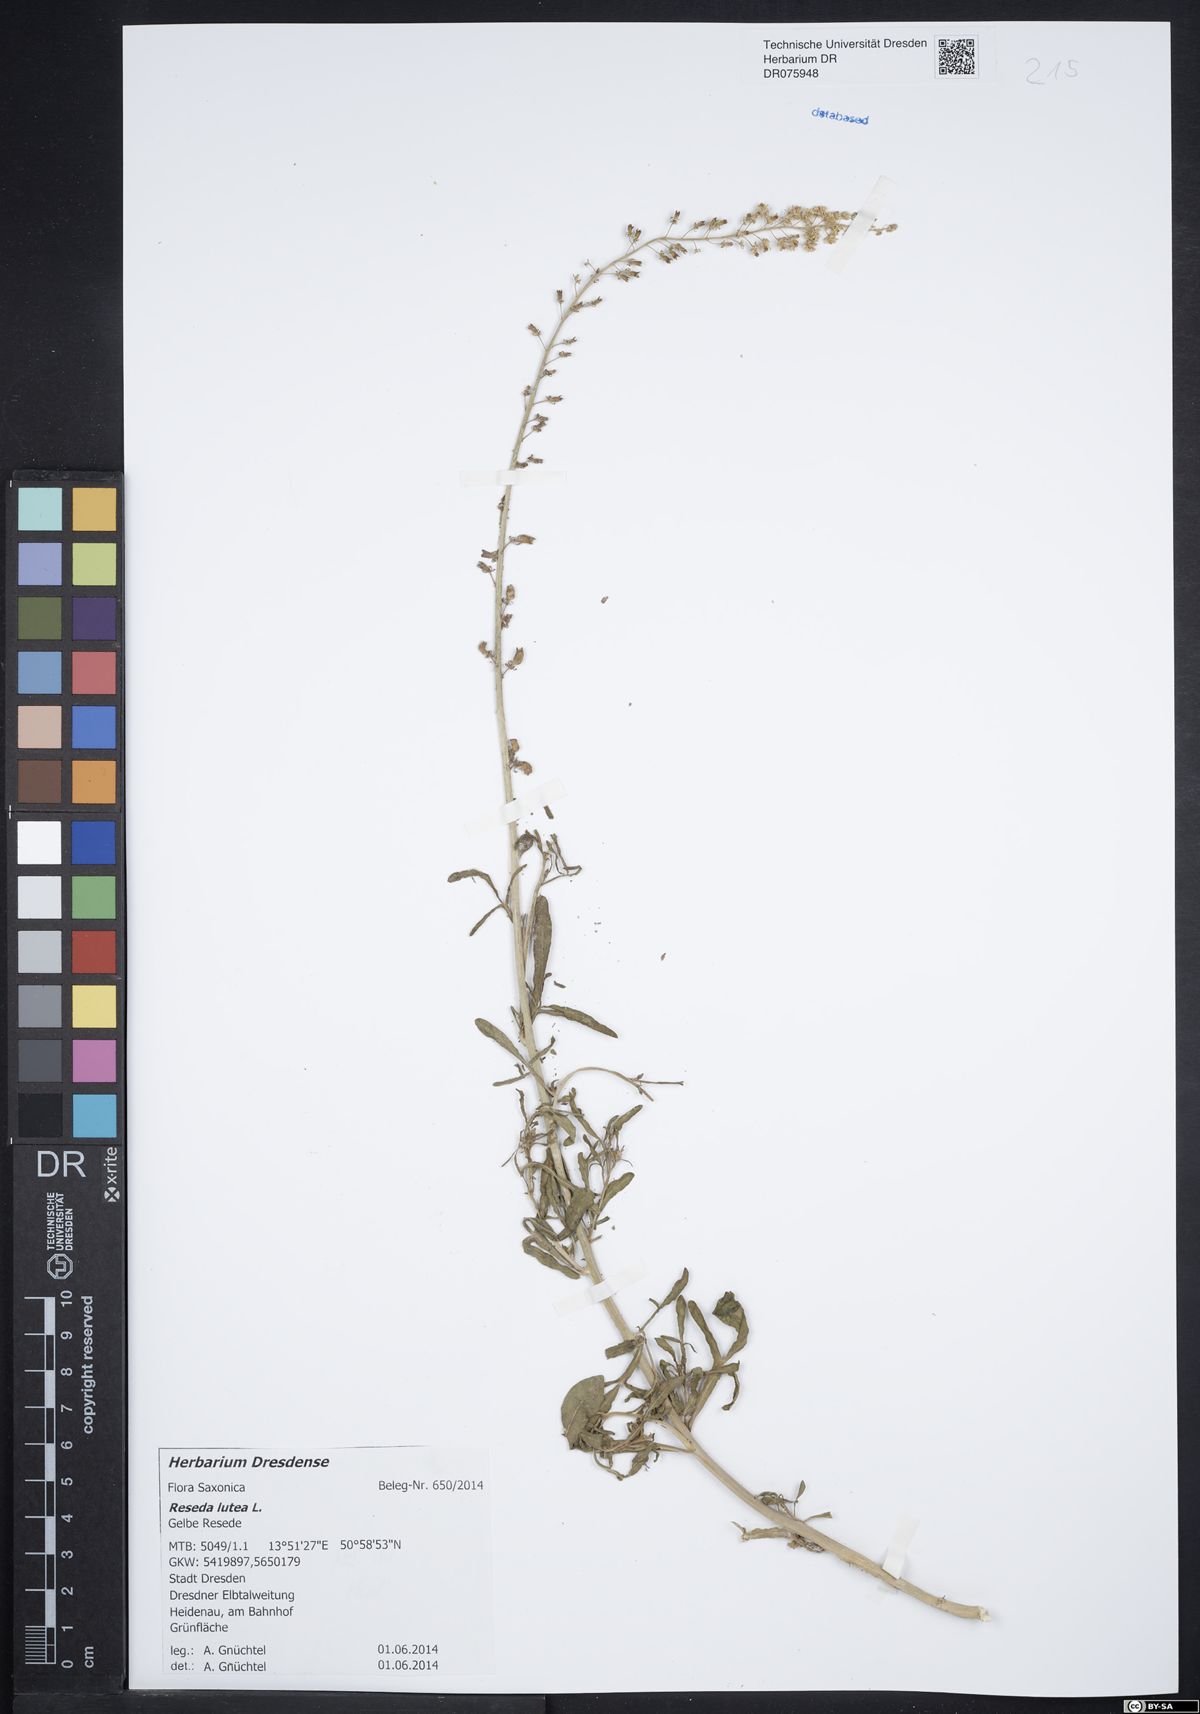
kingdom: Plantae
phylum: Tracheophyta
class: Magnoliopsida
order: Brassicales
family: Resedaceae
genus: Reseda
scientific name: Reseda lutea
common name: Wild mignonette
